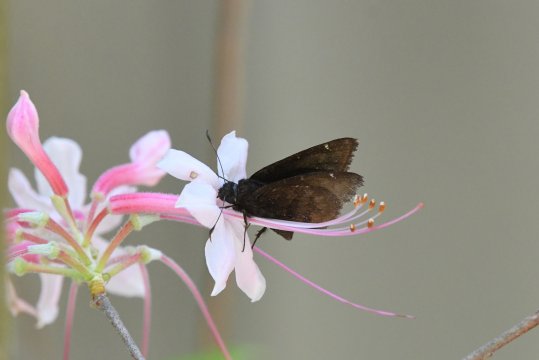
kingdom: Animalia
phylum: Arthropoda
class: Insecta
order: Lepidoptera
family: Hesperiidae
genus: Autochton
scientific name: Autochton
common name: Northern Cloudywing
